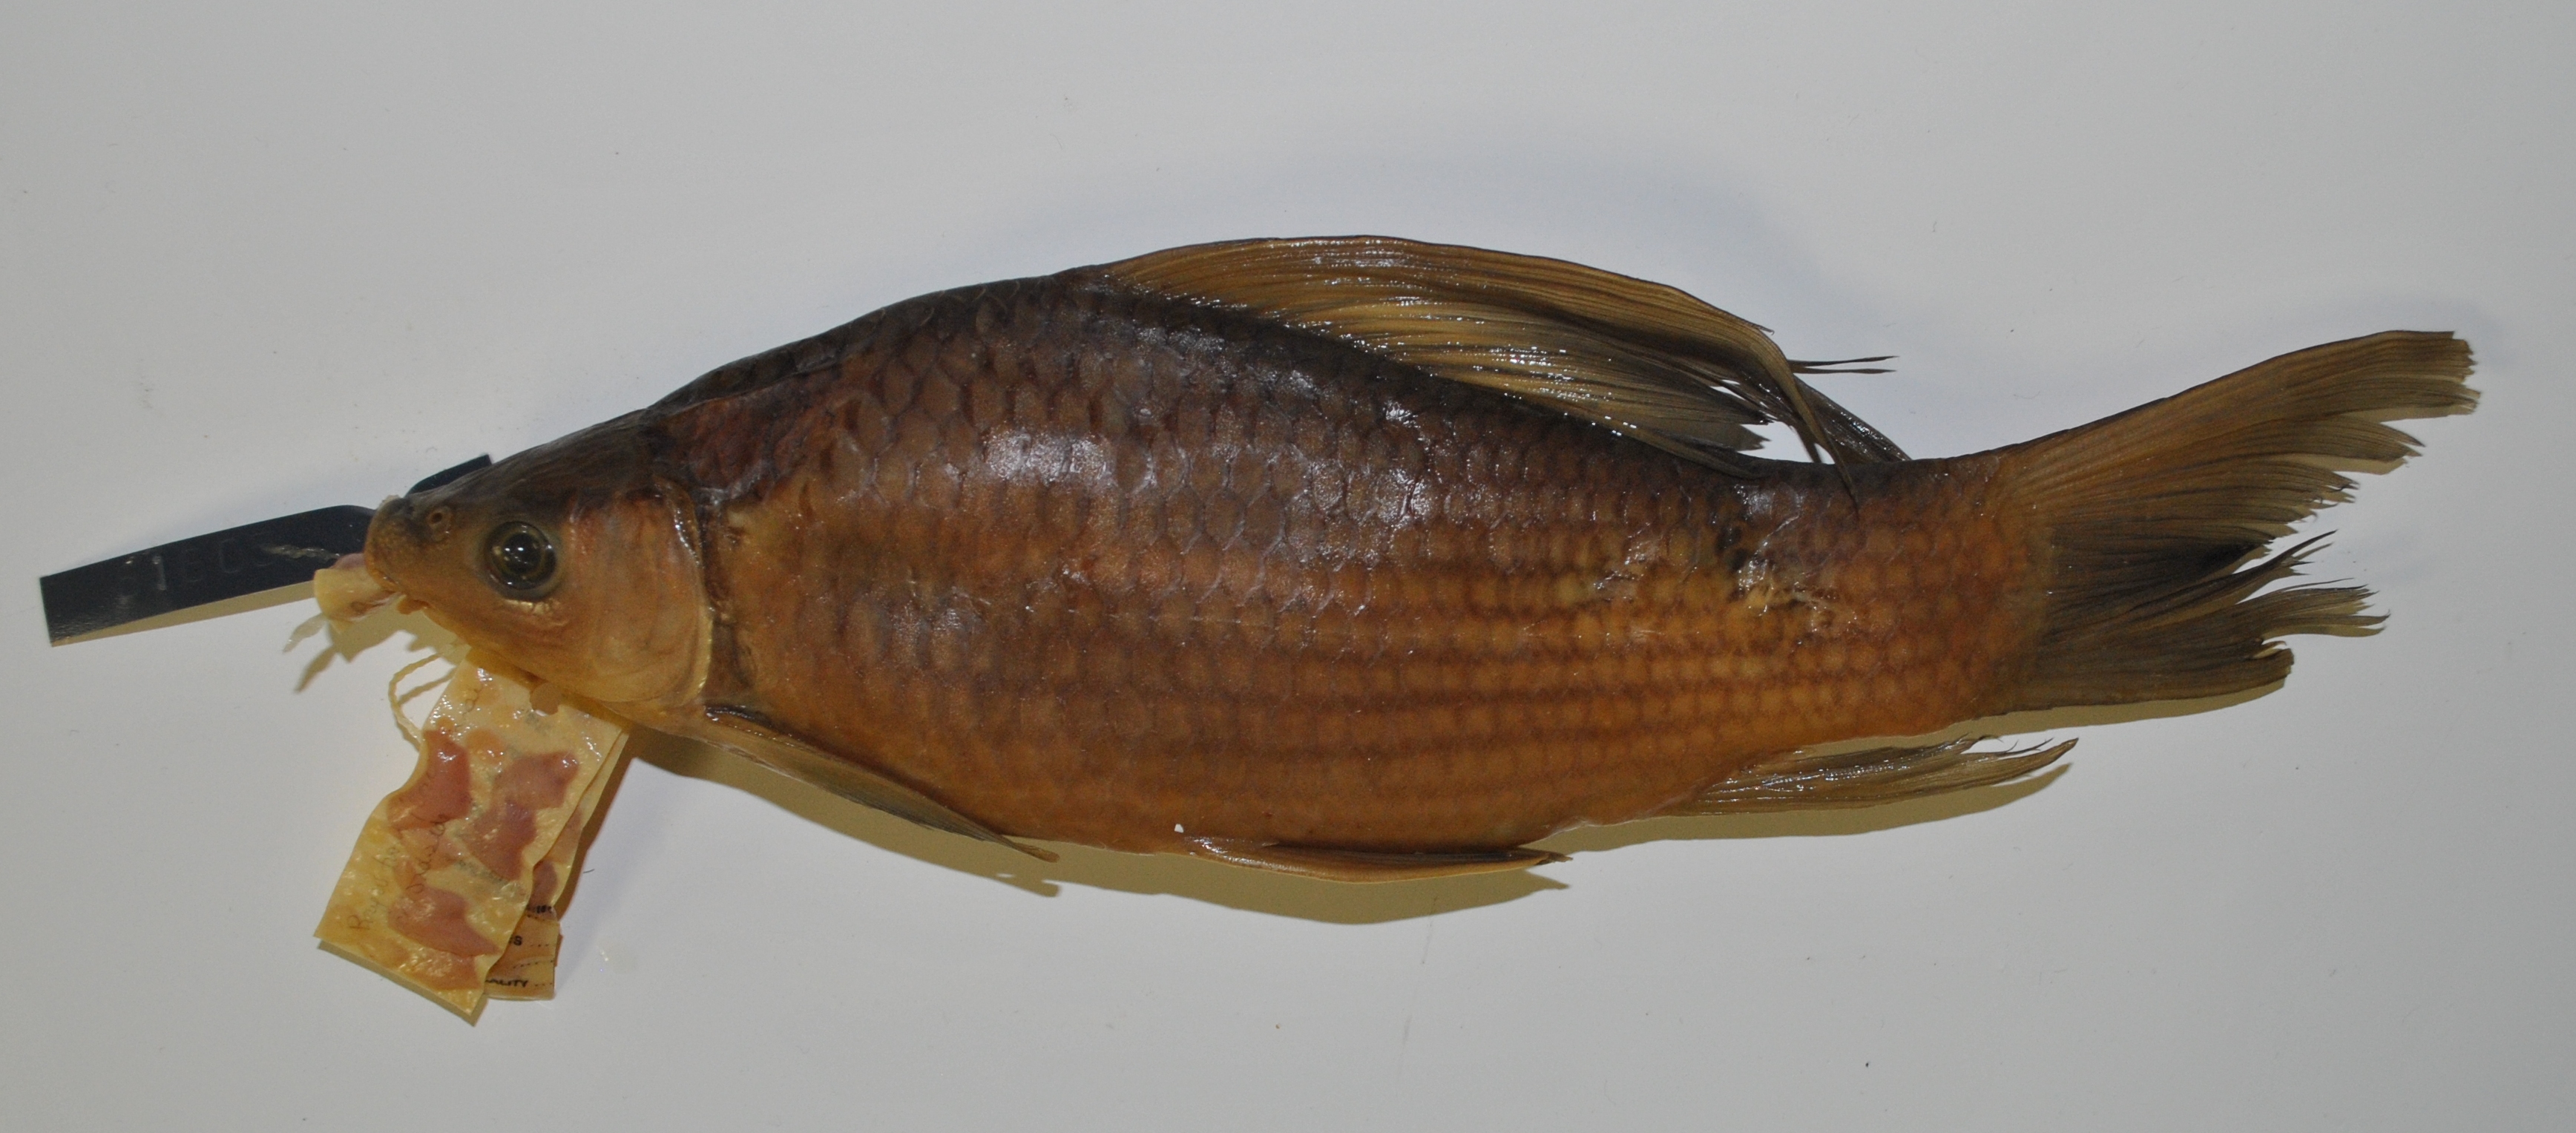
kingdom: Animalia
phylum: Chordata
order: Cypriniformes
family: Cyprinidae
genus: Labeo
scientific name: Labeo altivelis
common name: Hunyani labeo
